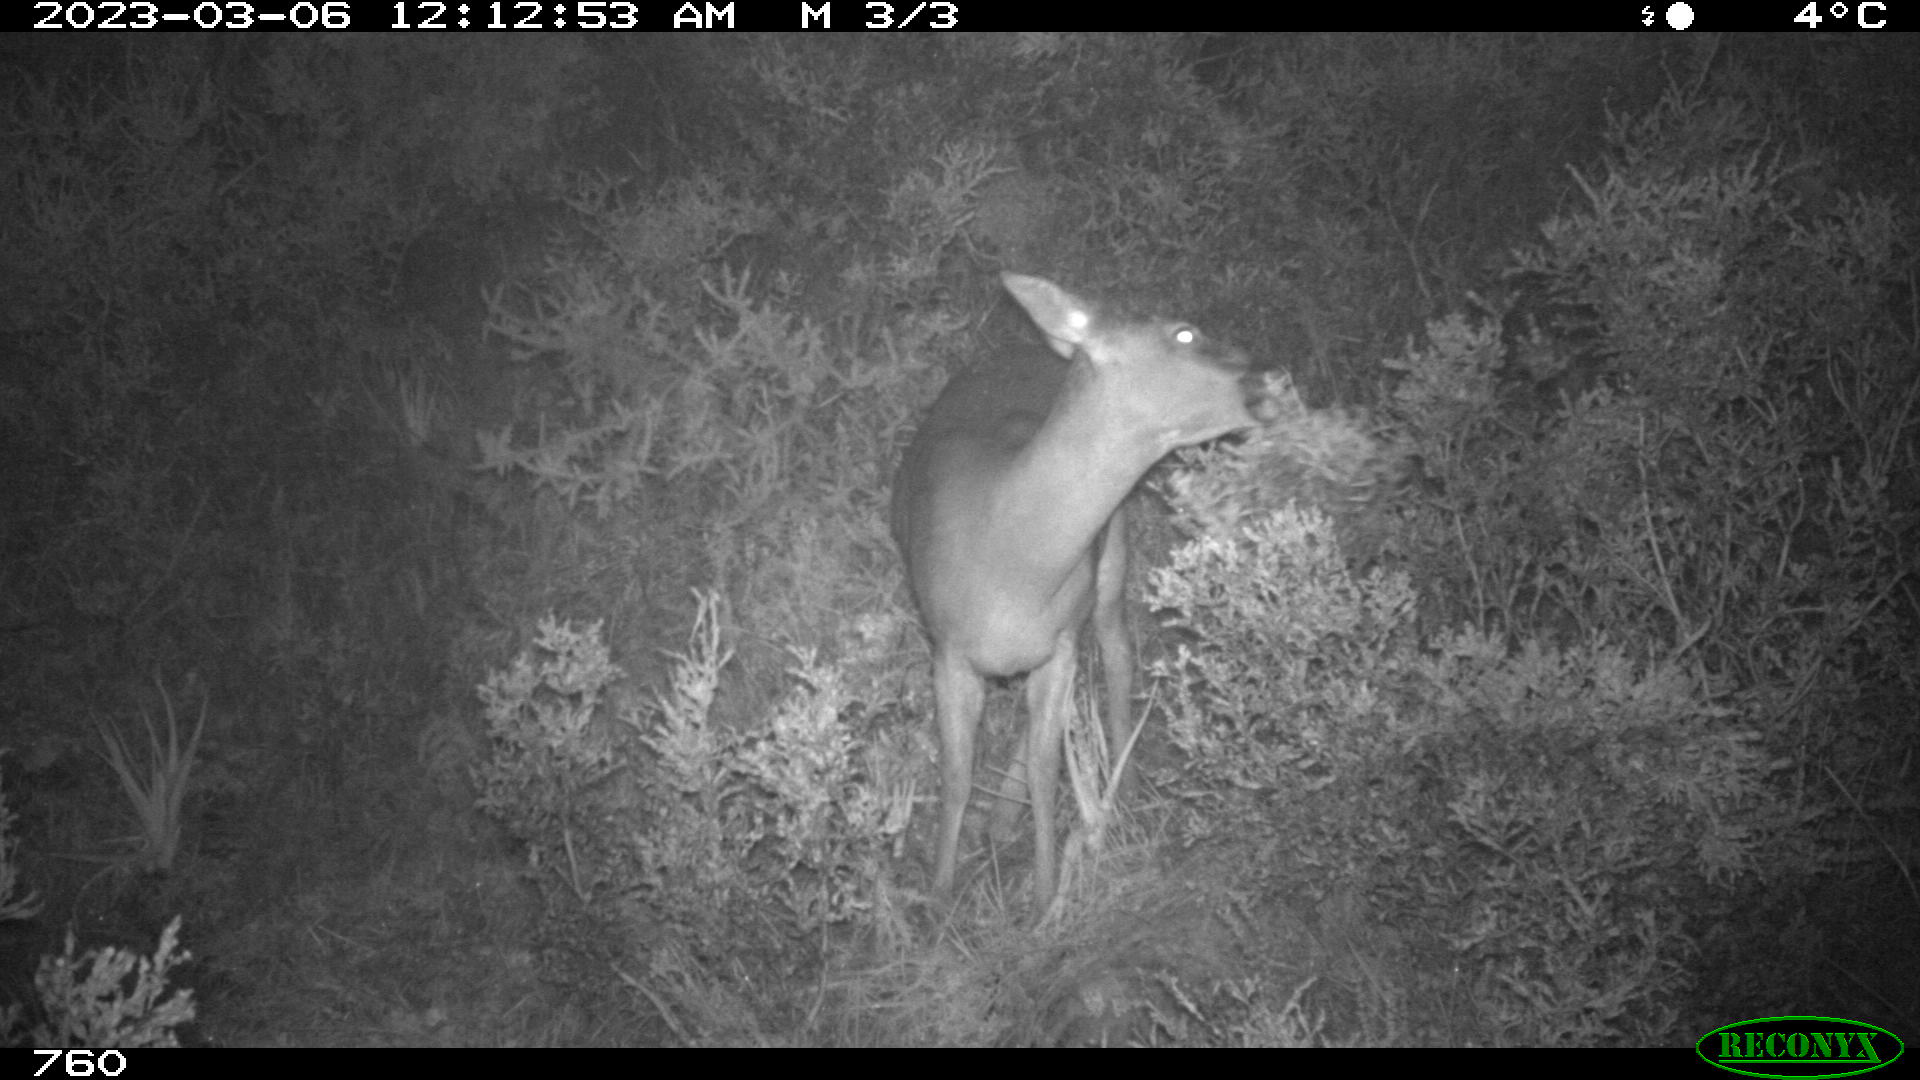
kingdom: Animalia
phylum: Chordata
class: Mammalia
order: Artiodactyla
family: Cervidae
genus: Capreolus
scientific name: Capreolus capreolus
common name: Western roe deer
